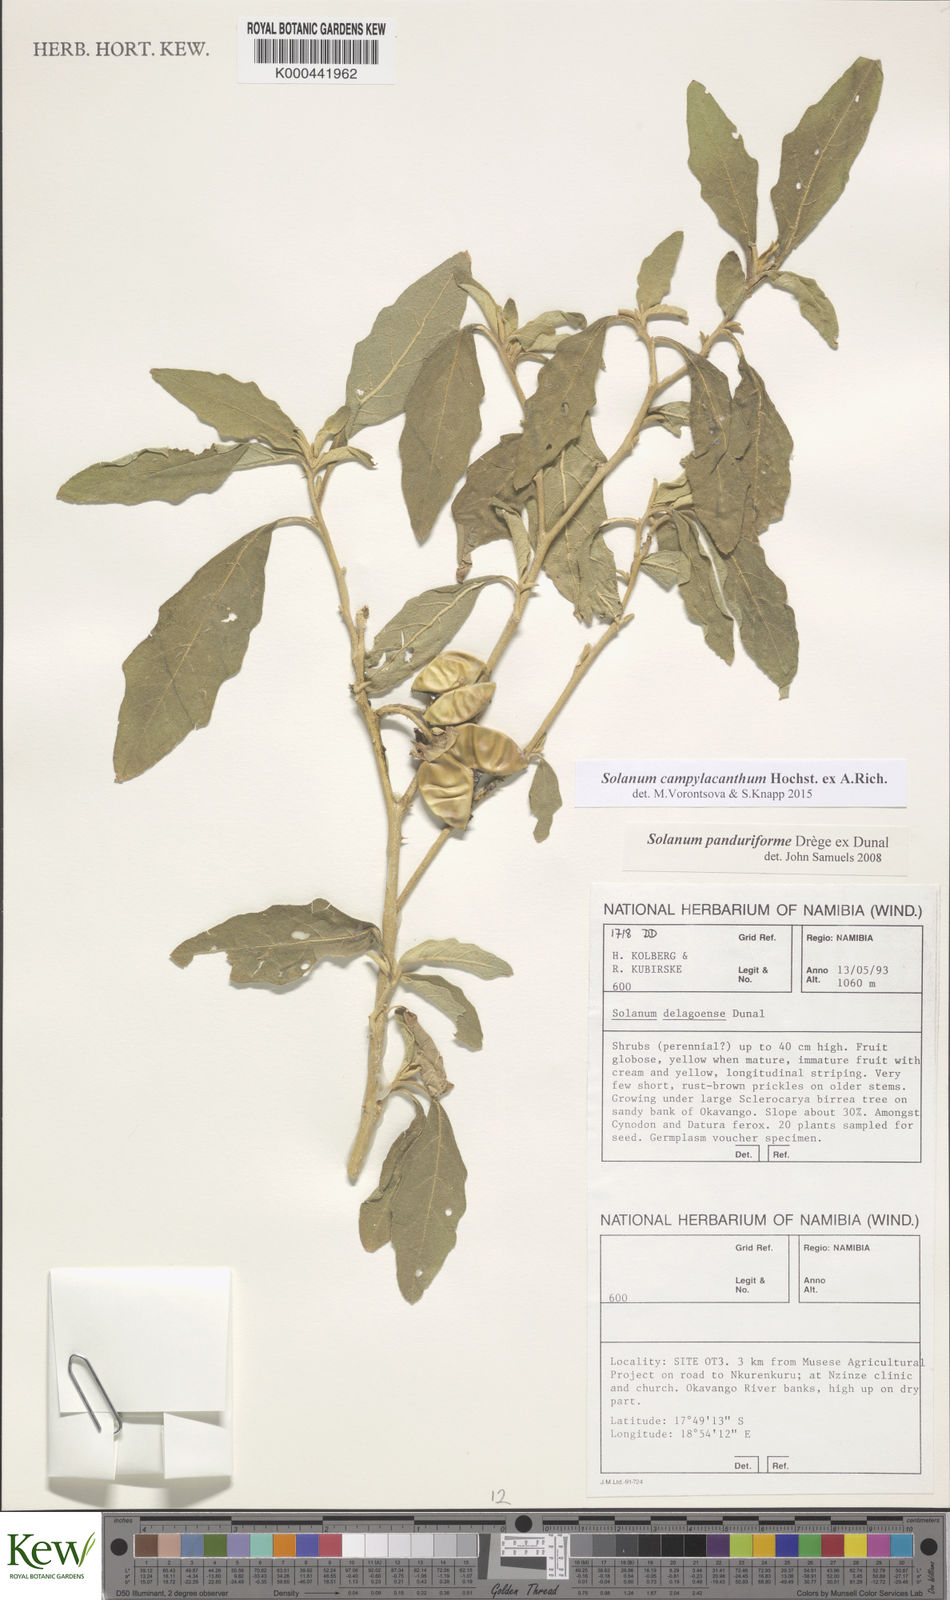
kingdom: Plantae
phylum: Tracheophyta
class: Magnoliopsida
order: Solanales
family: Solanaceae
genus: Solanum
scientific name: Solanum campylacanthum
